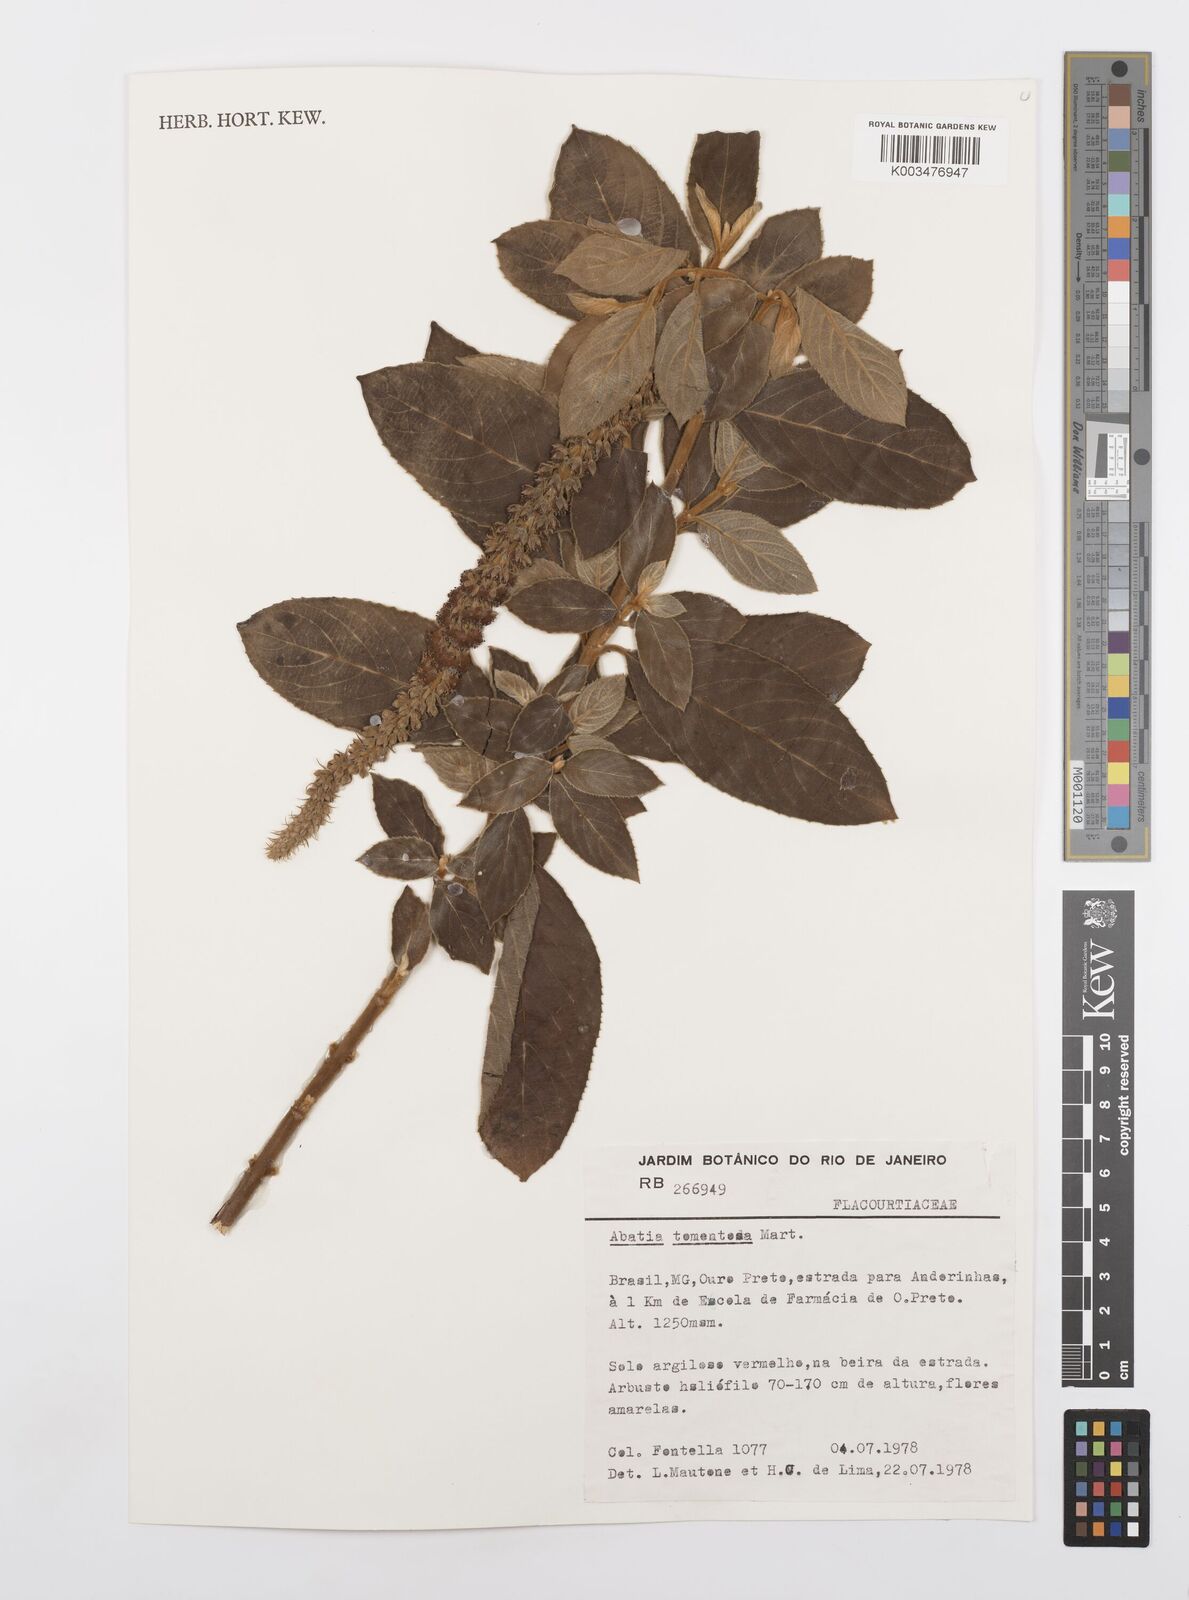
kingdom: Plantae
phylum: Tracheophyta
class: Magnoliopsida
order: Malpighiales
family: Salicaceae
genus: Abatia
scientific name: Abatia americana
